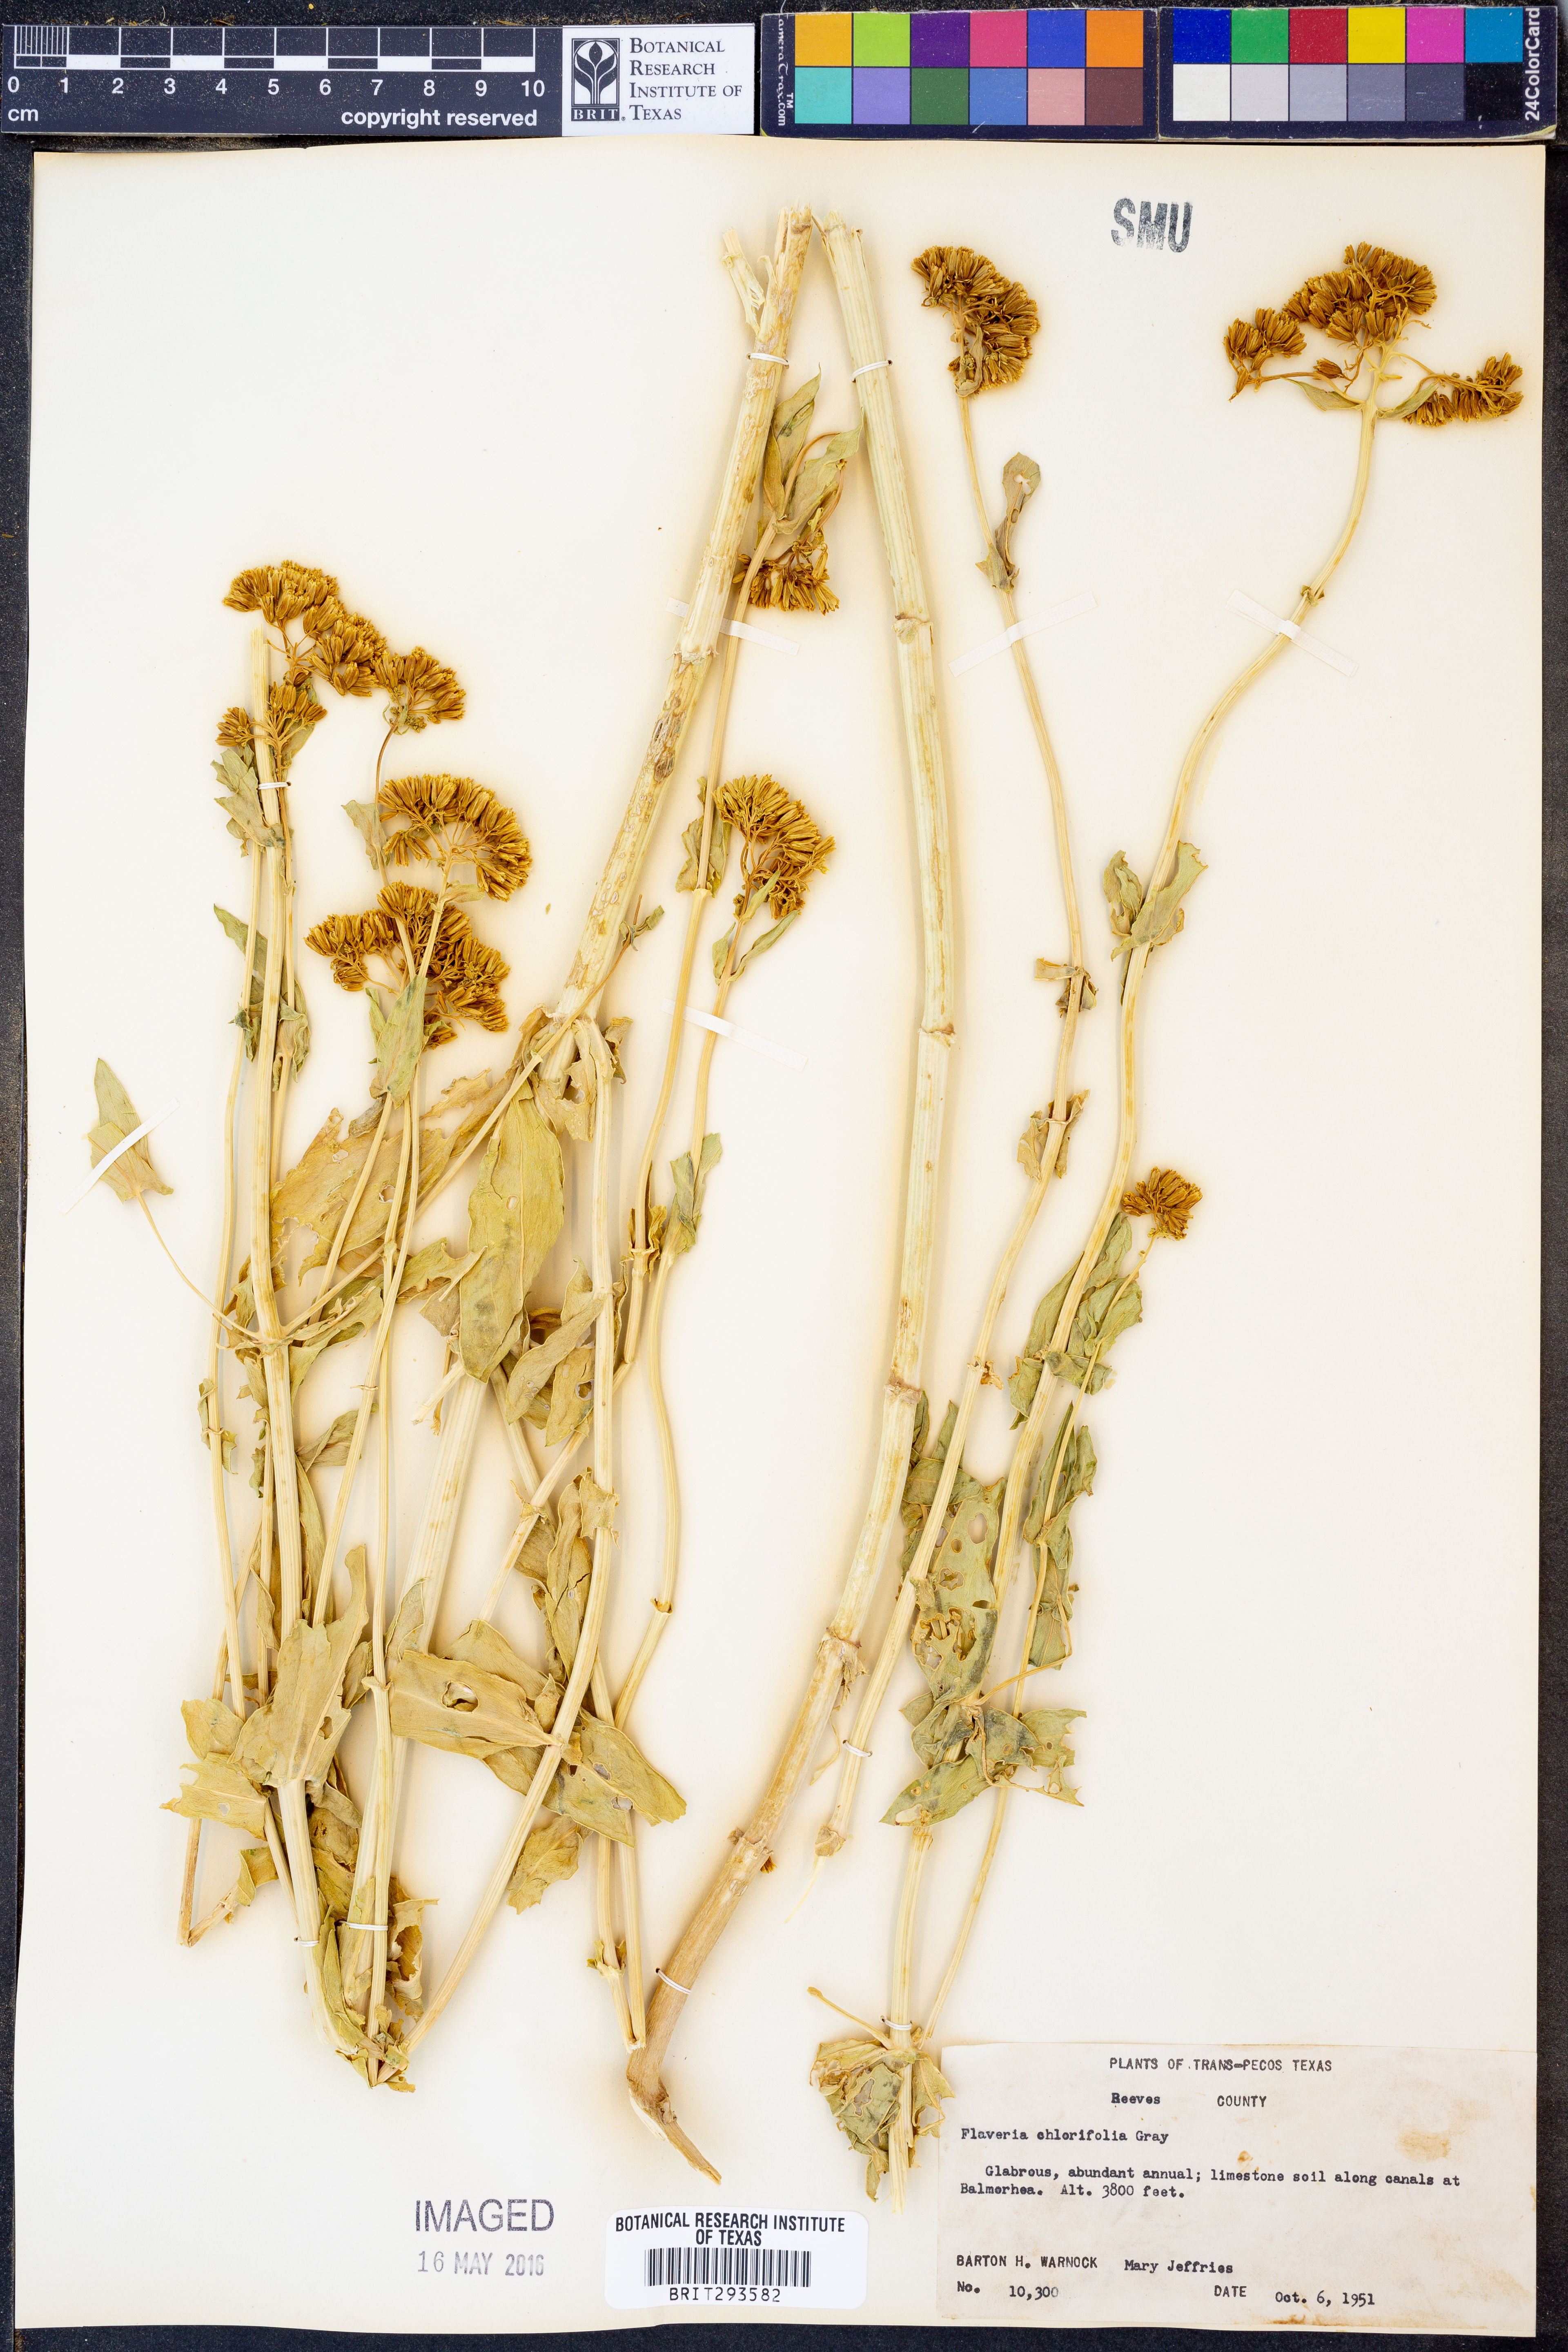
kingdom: Plantae
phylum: Tracheophyta
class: Magnoliopsida
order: Asterales
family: Asteraceae
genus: Flaveria
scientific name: Flaveria chlorifolia
